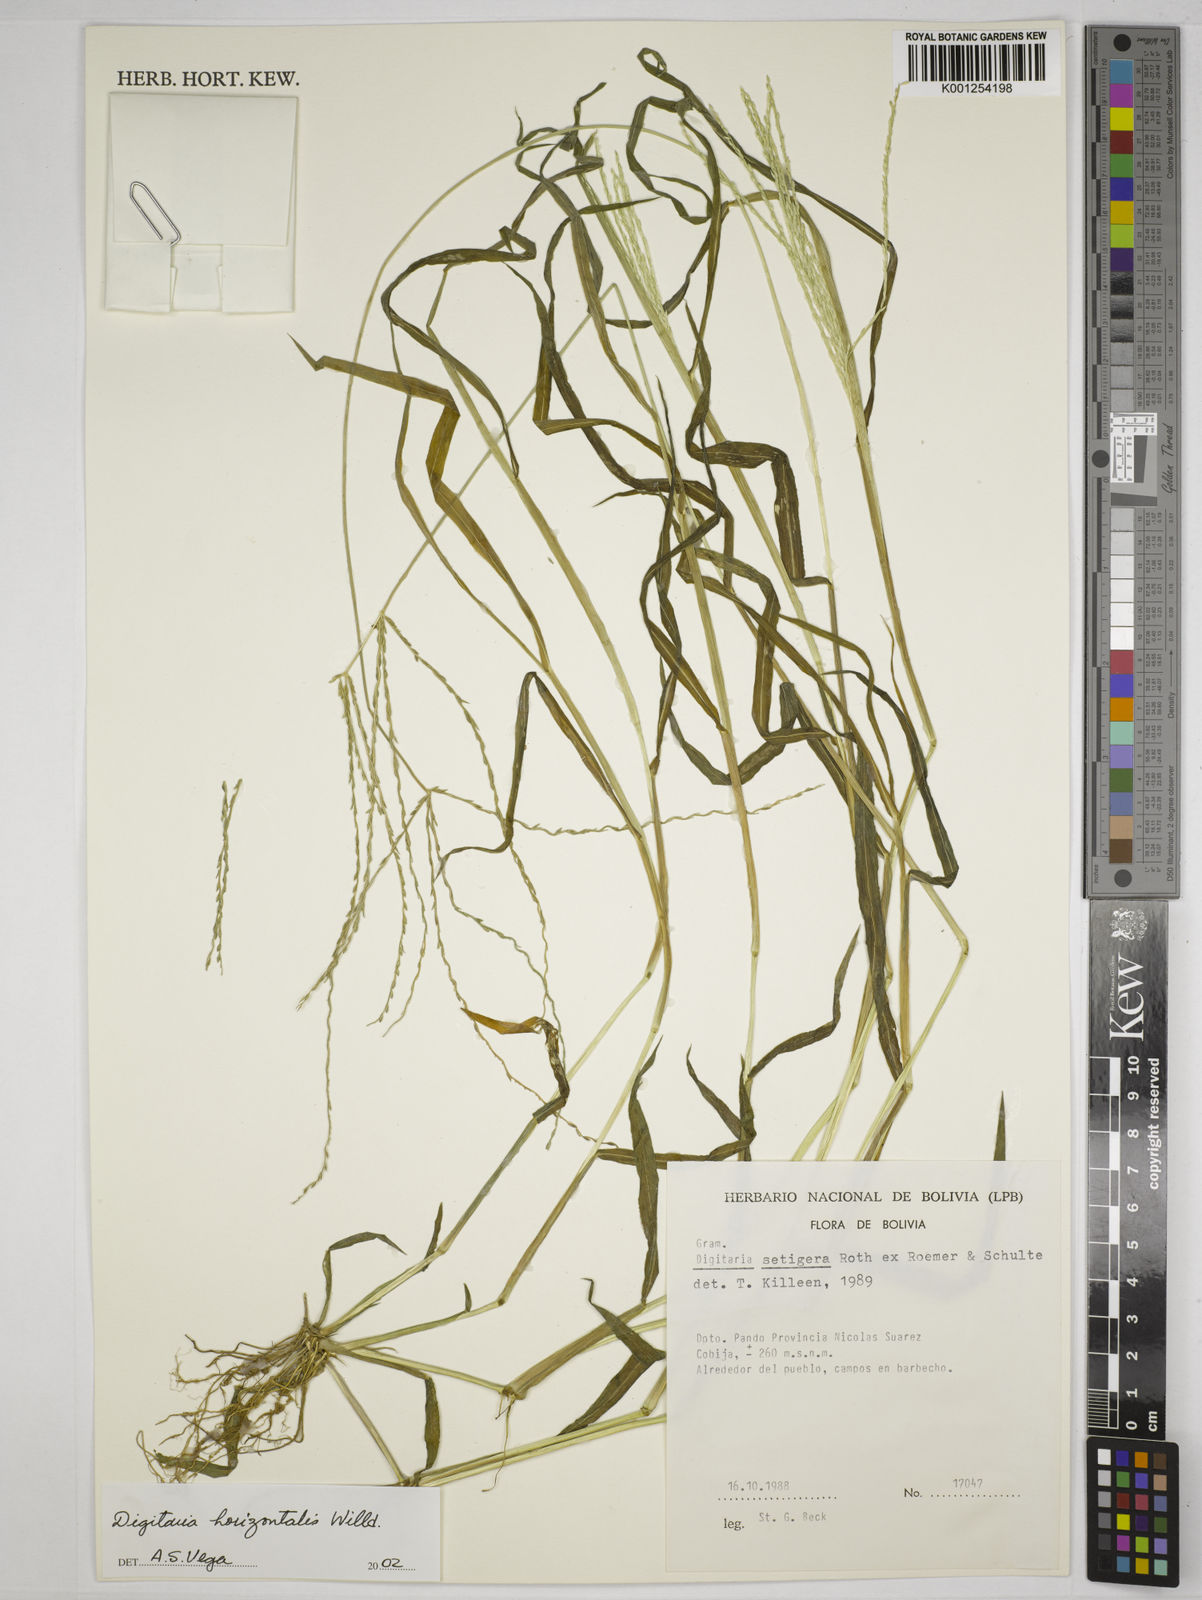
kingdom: Plantae
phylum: Tracheophyta
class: Liliopsida
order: Poales
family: Poaceae
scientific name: Poaceae
